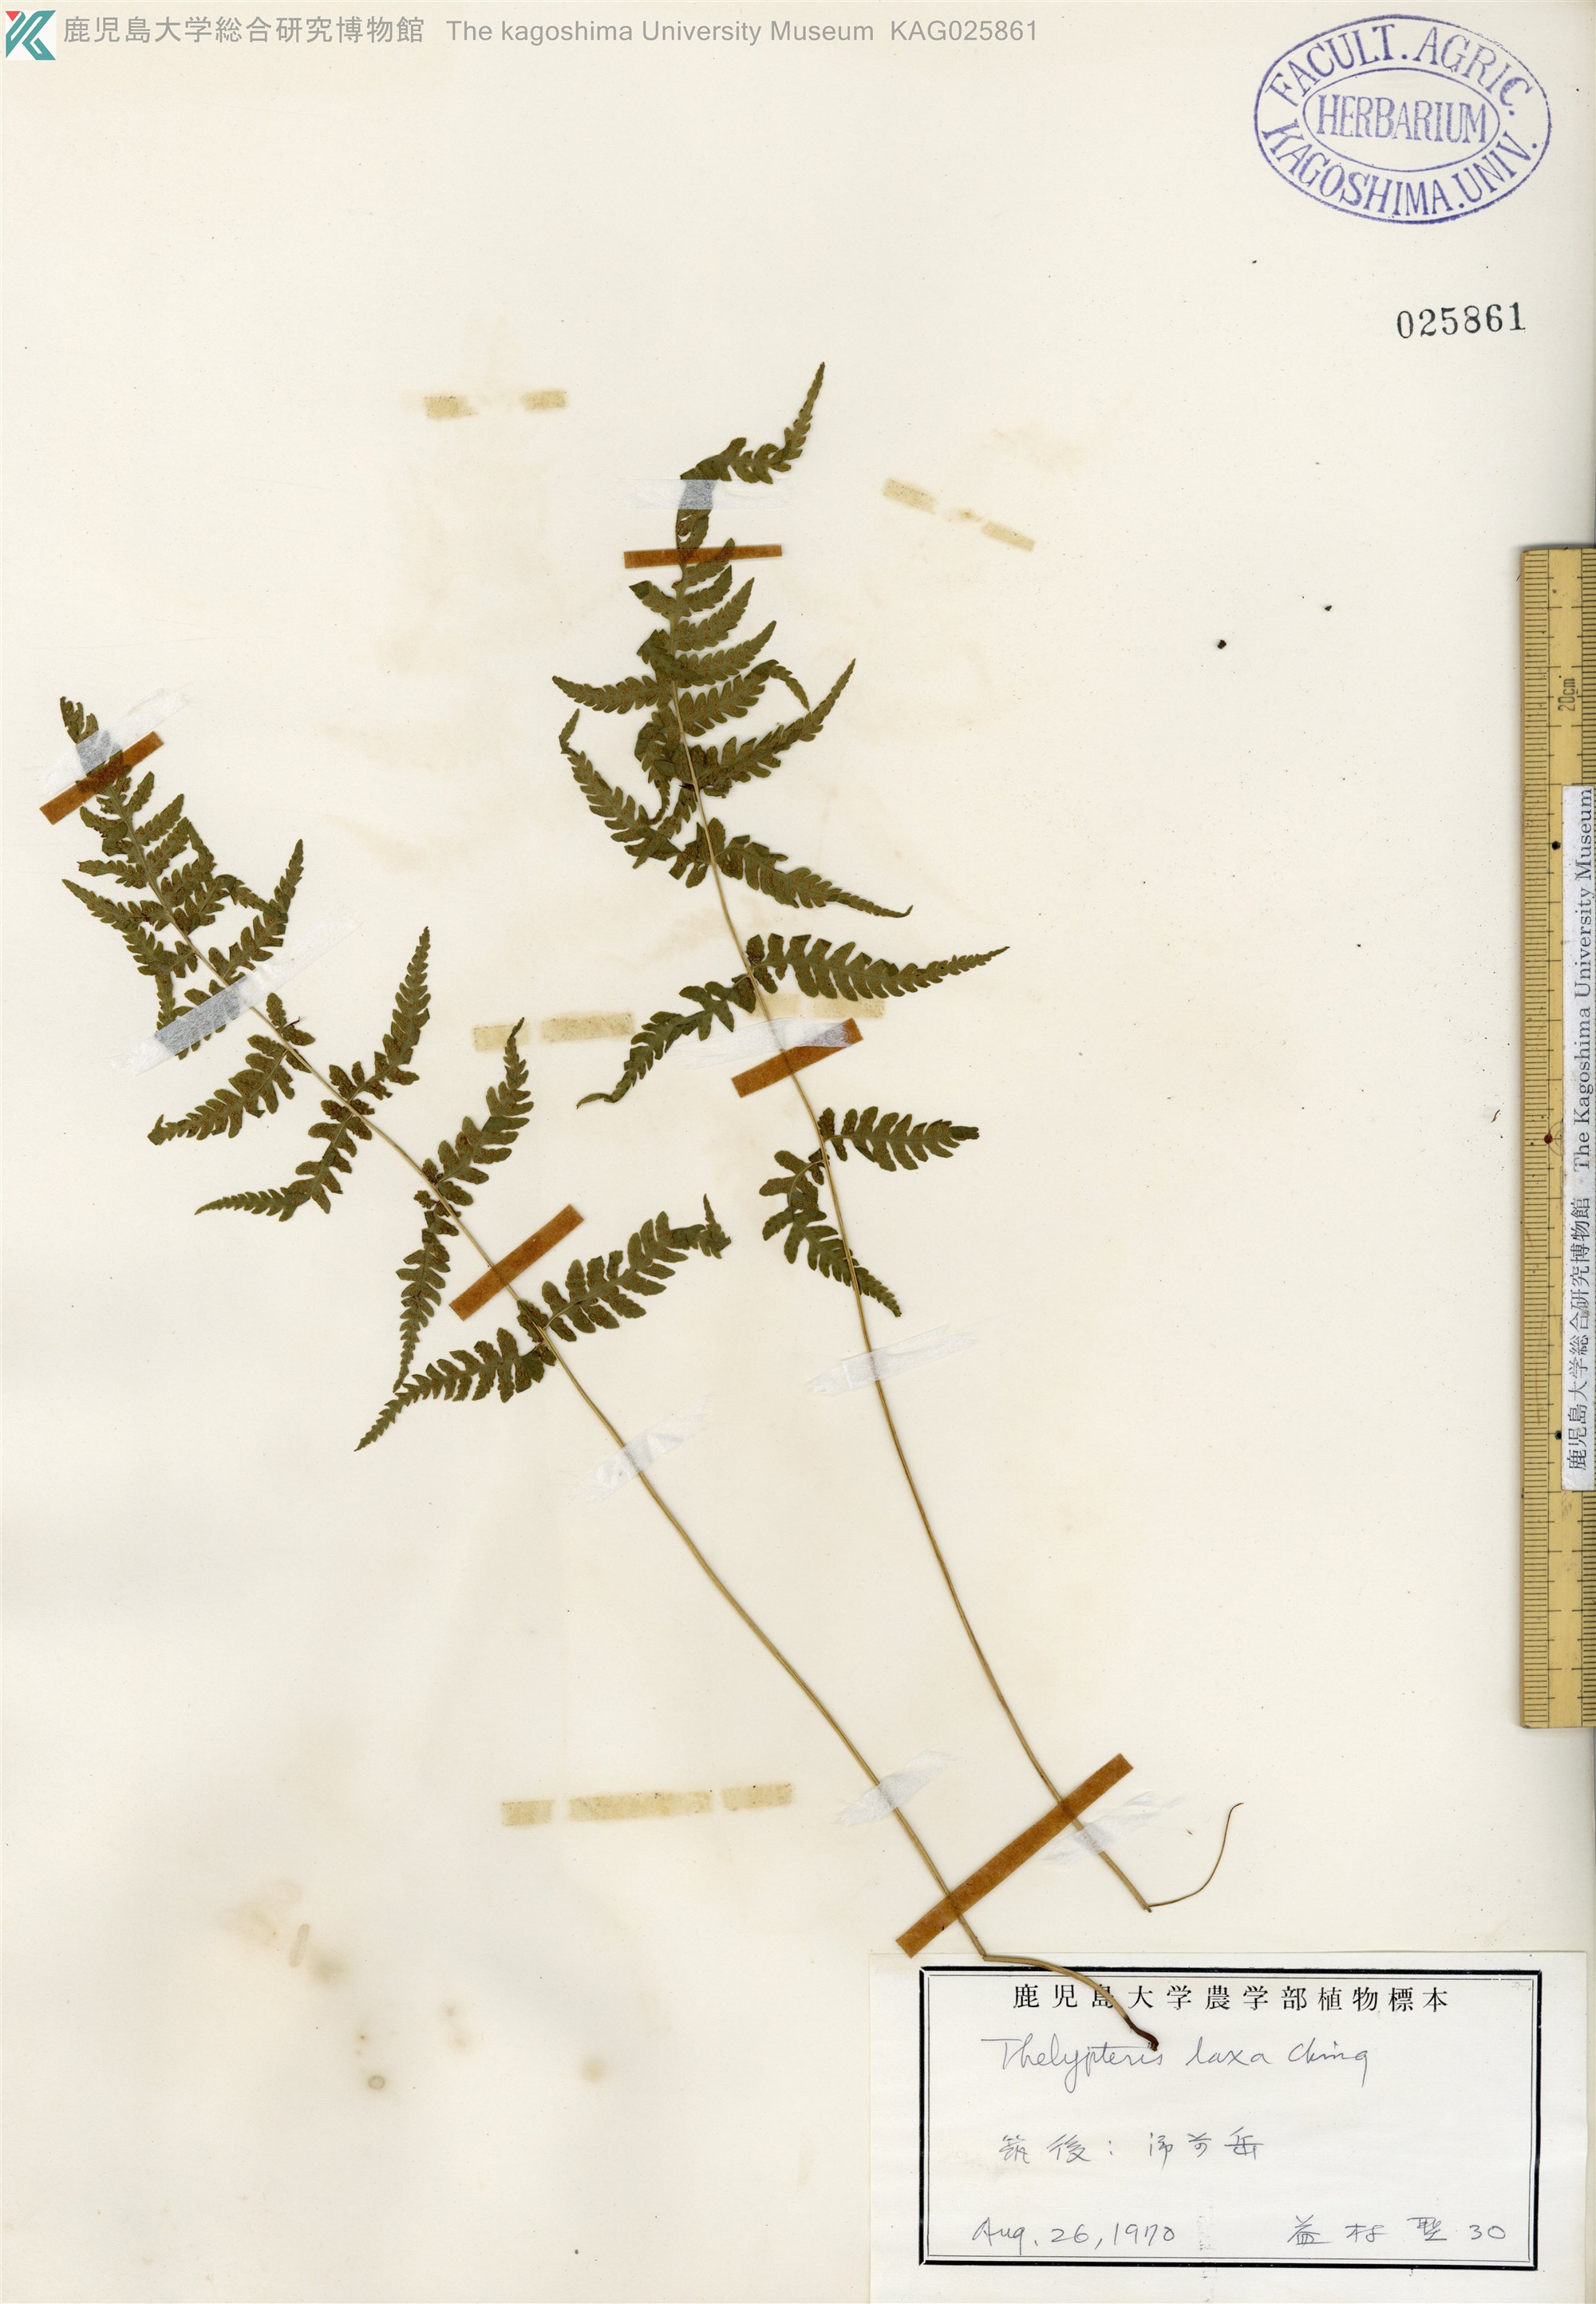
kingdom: Plantae
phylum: Tracheophyta
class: Polypodiopsida
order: Polypodiales
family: Thelypteridaceae
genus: Metathelypteris
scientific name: Metathelypteris laxa
